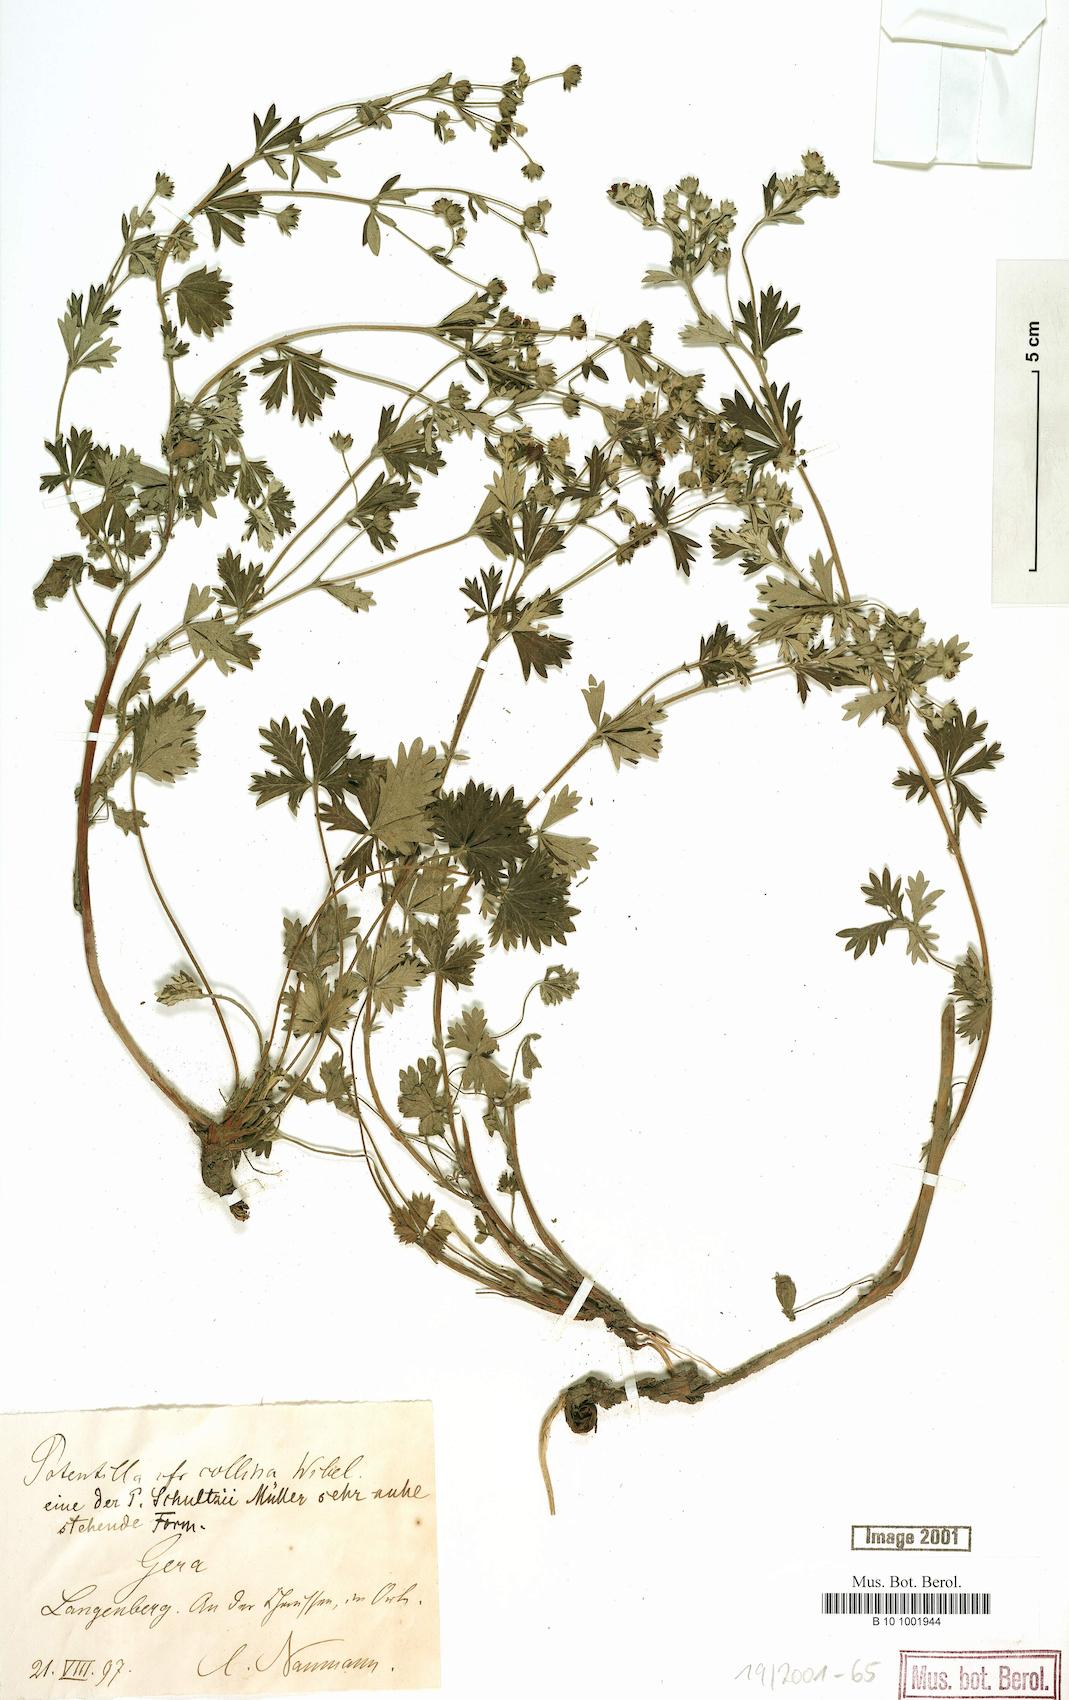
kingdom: Plantae
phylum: Tracheophyta
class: Magnoliopsida
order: Rosales
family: Rosaceae
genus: Potentilla
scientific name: Potentilla collina
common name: Palmleaf cinquefoil
